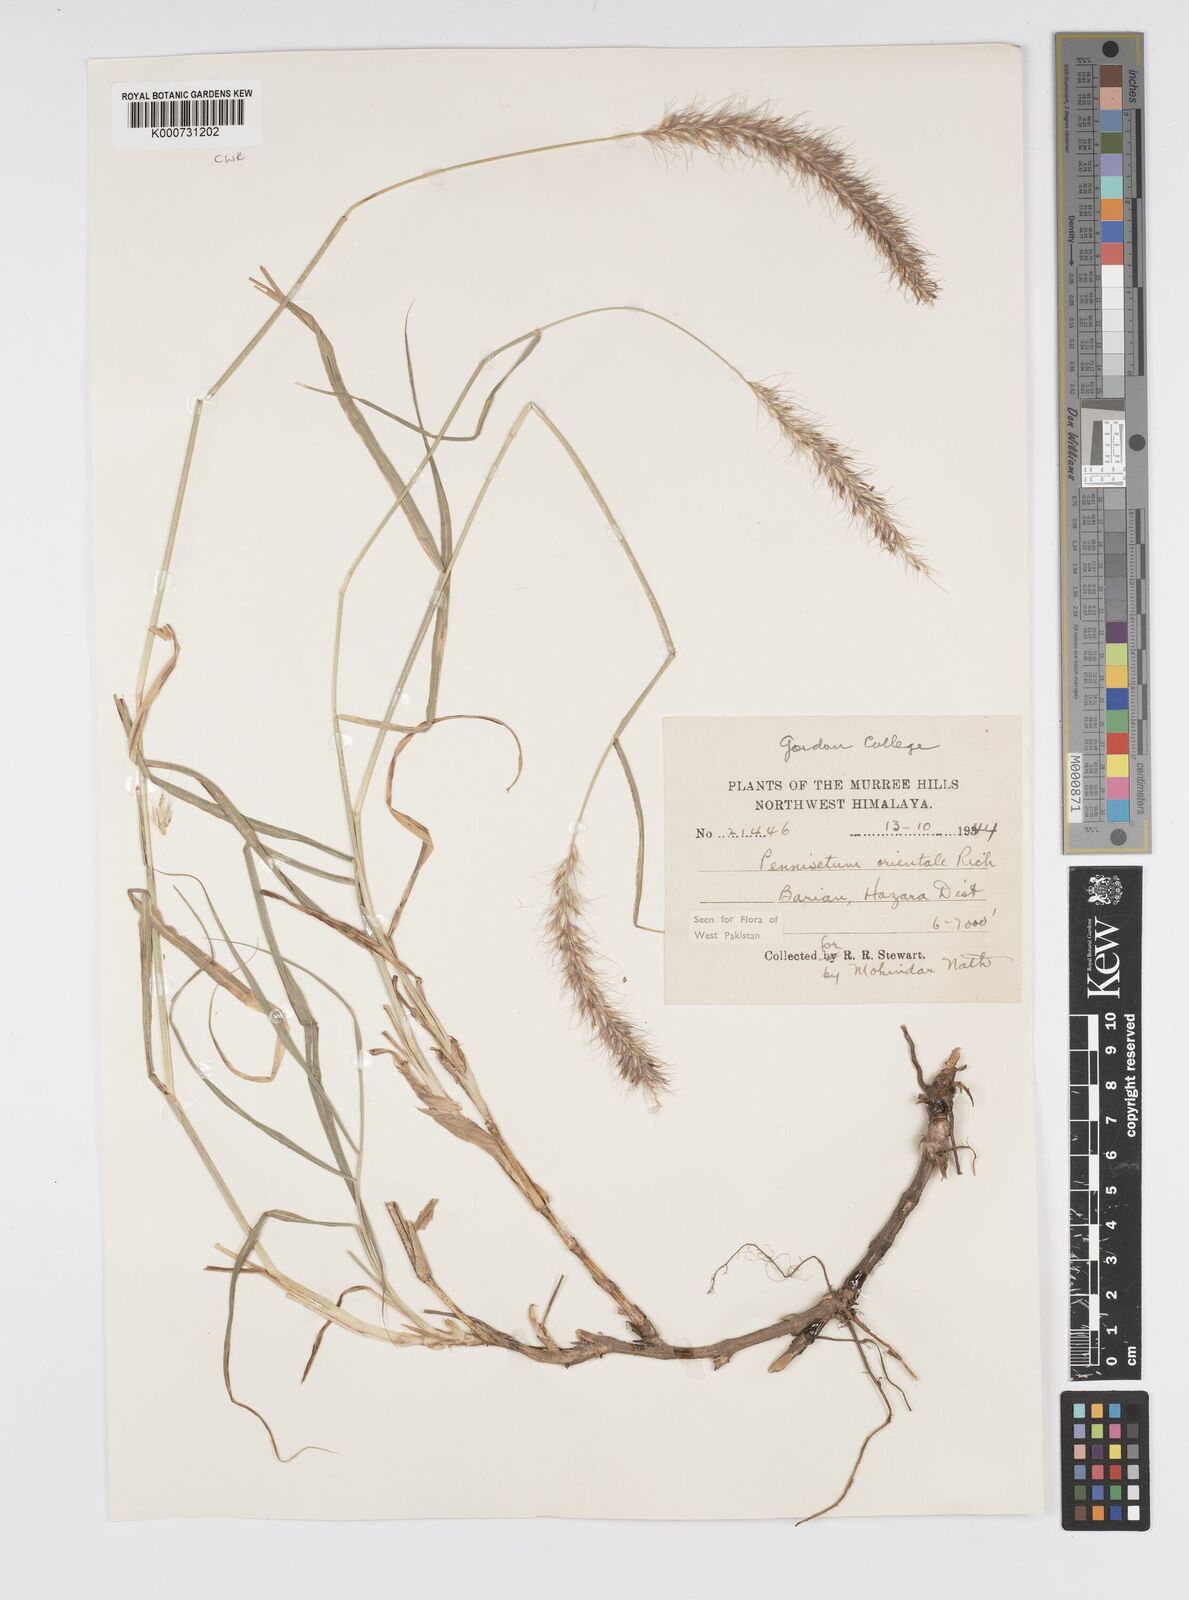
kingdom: Plantae
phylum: Tracheophyta
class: Liliopsida
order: Poales
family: Poaceae
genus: Cenchrus
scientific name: Cenchrus orientalis
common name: Oriental fountain grass
